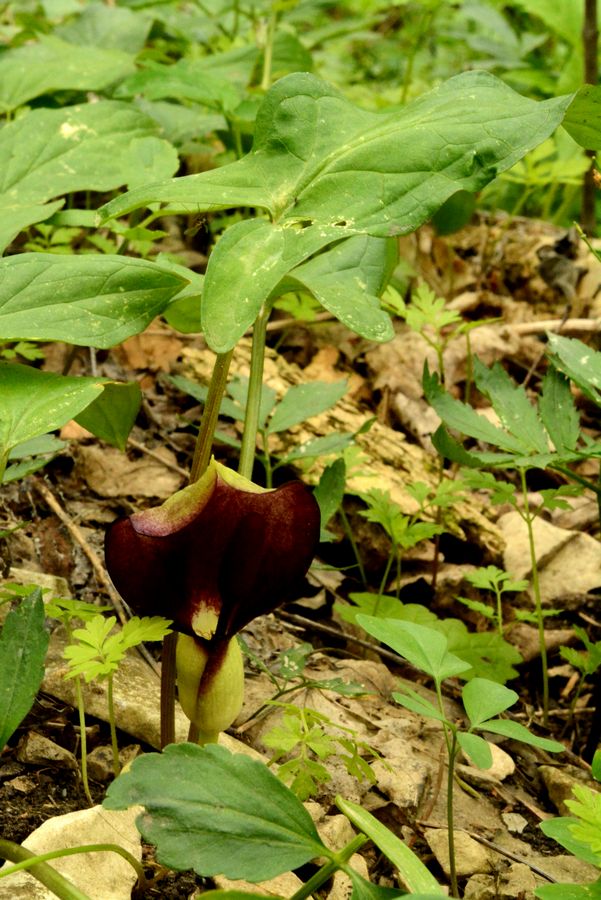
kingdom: Plantae
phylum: Tracheophyta
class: Liliopsida
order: Alismatales
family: Araceae
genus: Arum
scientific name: Arum orientale
